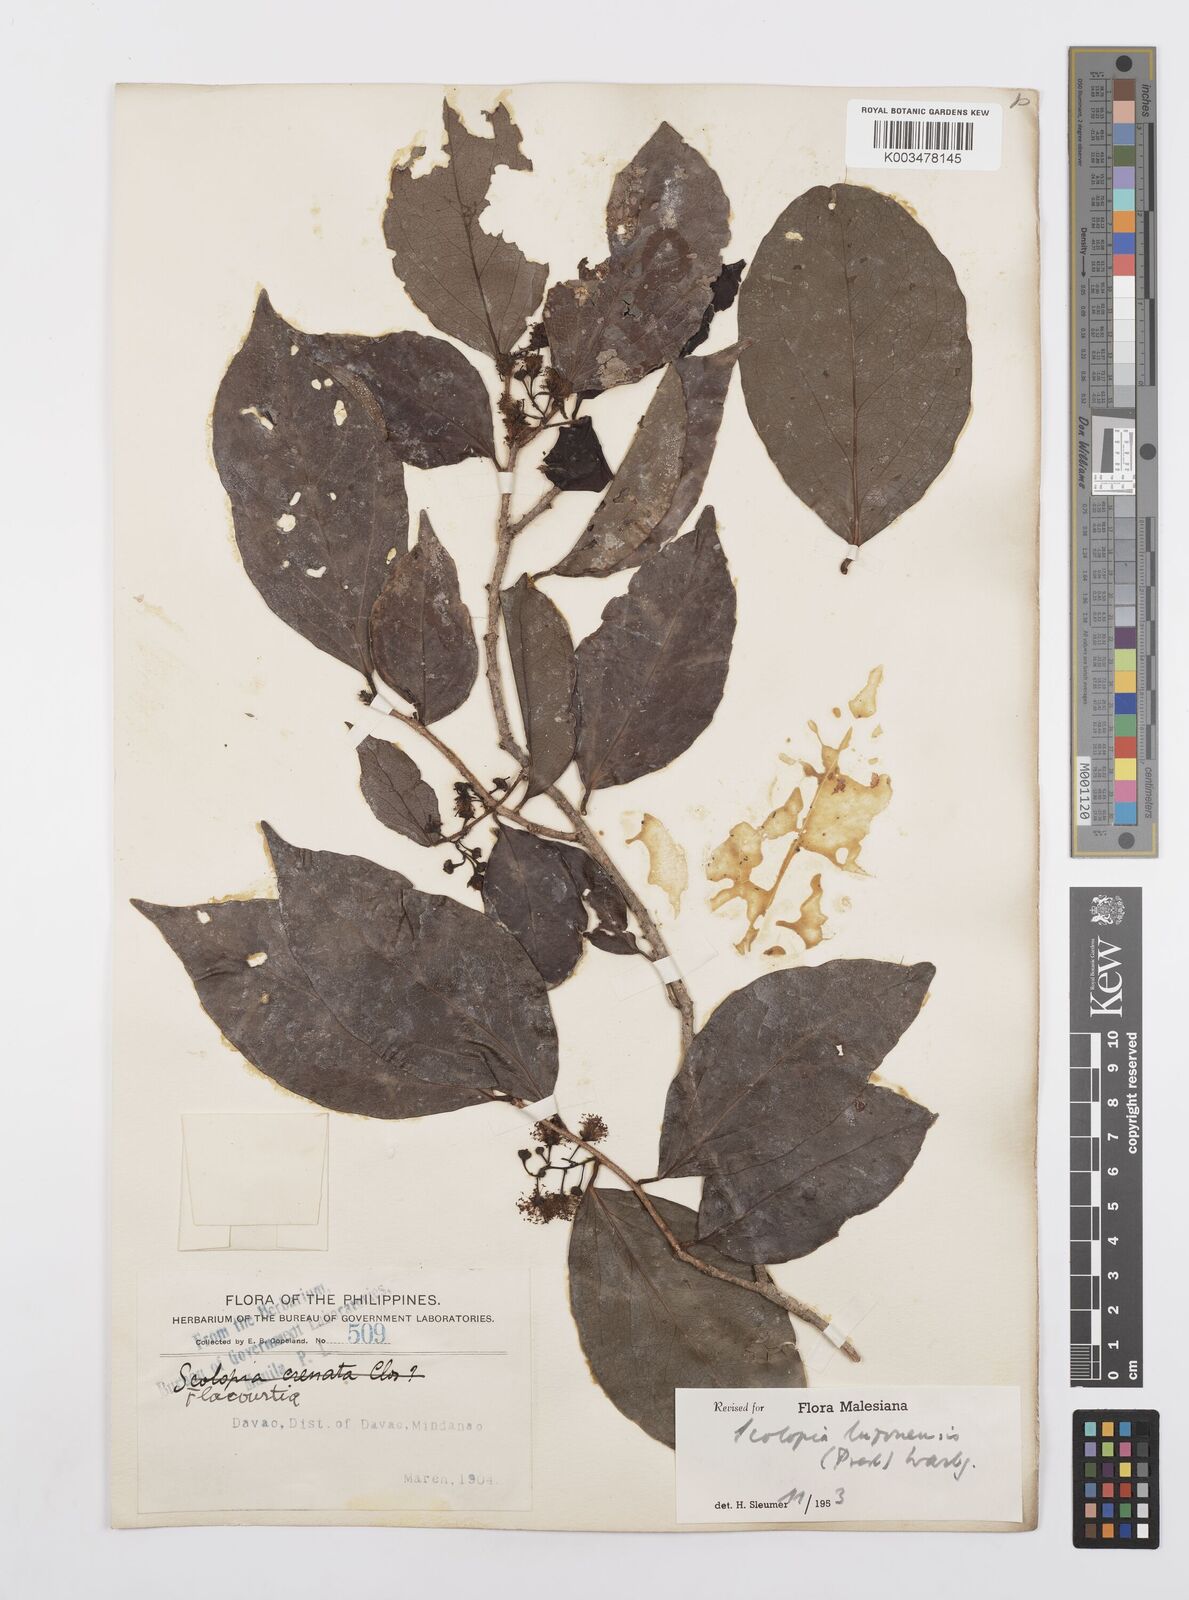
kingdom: Plantae
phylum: Tracheophyta
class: Magnoliopsida
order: Malpighiales
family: Salicaceae
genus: Scolopia
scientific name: Scolopia luzonensis
